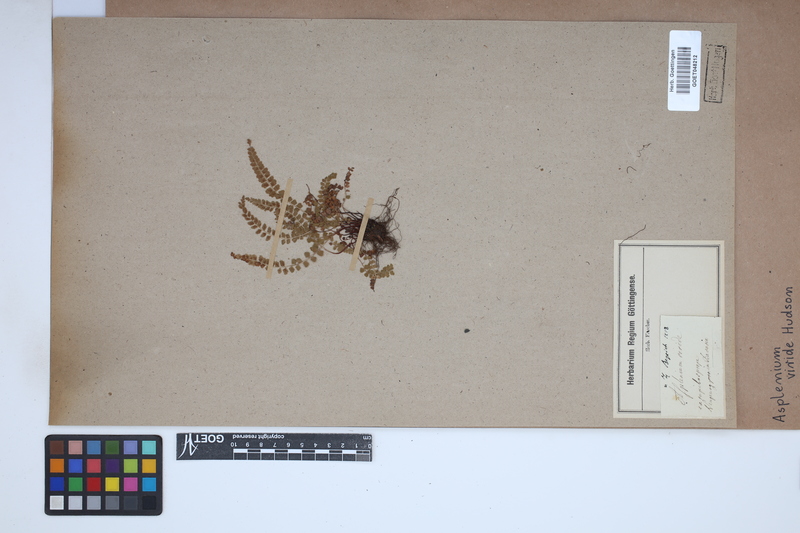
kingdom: Plantae
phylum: Tracheophyta
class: Polypodiopsida
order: Polypodiales
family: Aspleniaceae
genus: Asplenium
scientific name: Asplenium viride
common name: Green spleenwort
